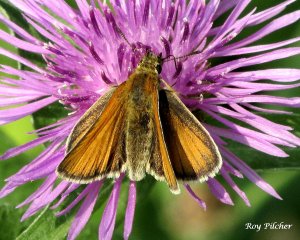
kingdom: Animalia
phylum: Arthropoda
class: Insecta
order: Lepidoptera
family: Hesperiidae
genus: Thymelicus
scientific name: Thymelicus lineola
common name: European Skipper
